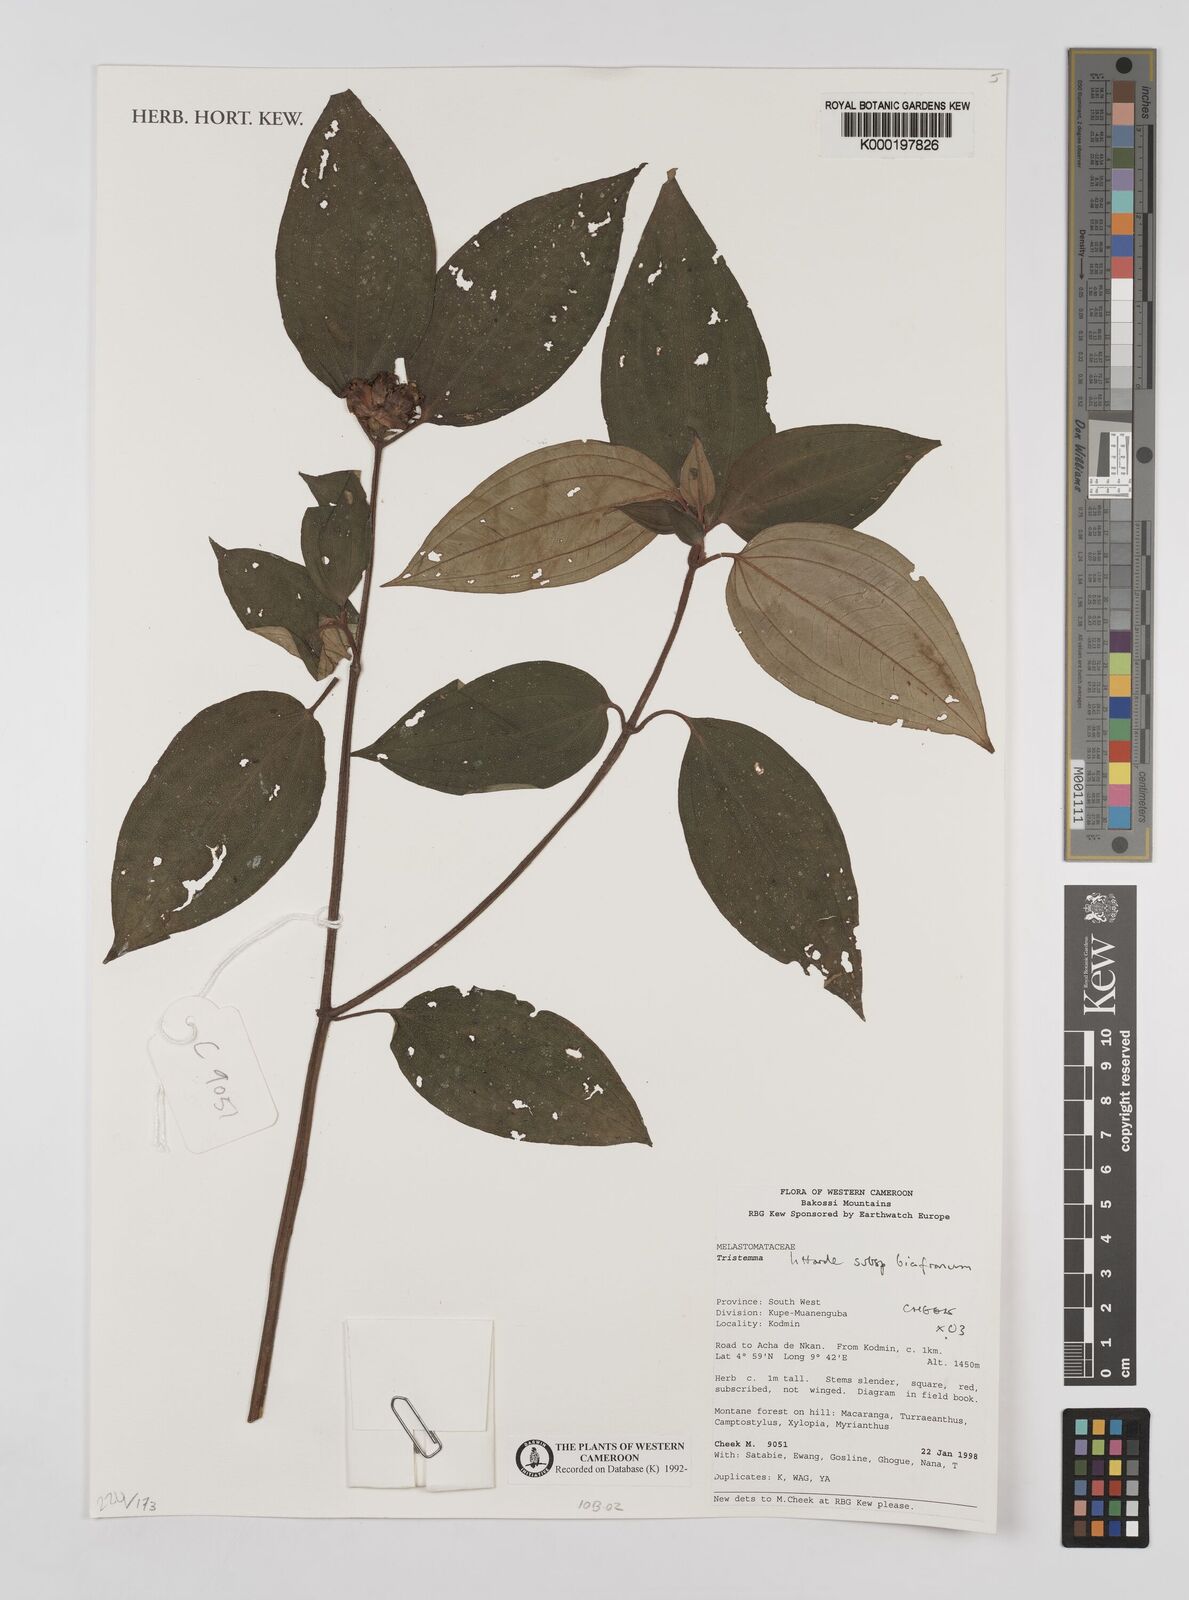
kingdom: Plantae
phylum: Tracheophyta
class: Magnoliopsida
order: Myrtales
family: Melastomataceae
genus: Tristemma
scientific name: Tristemma littorale
